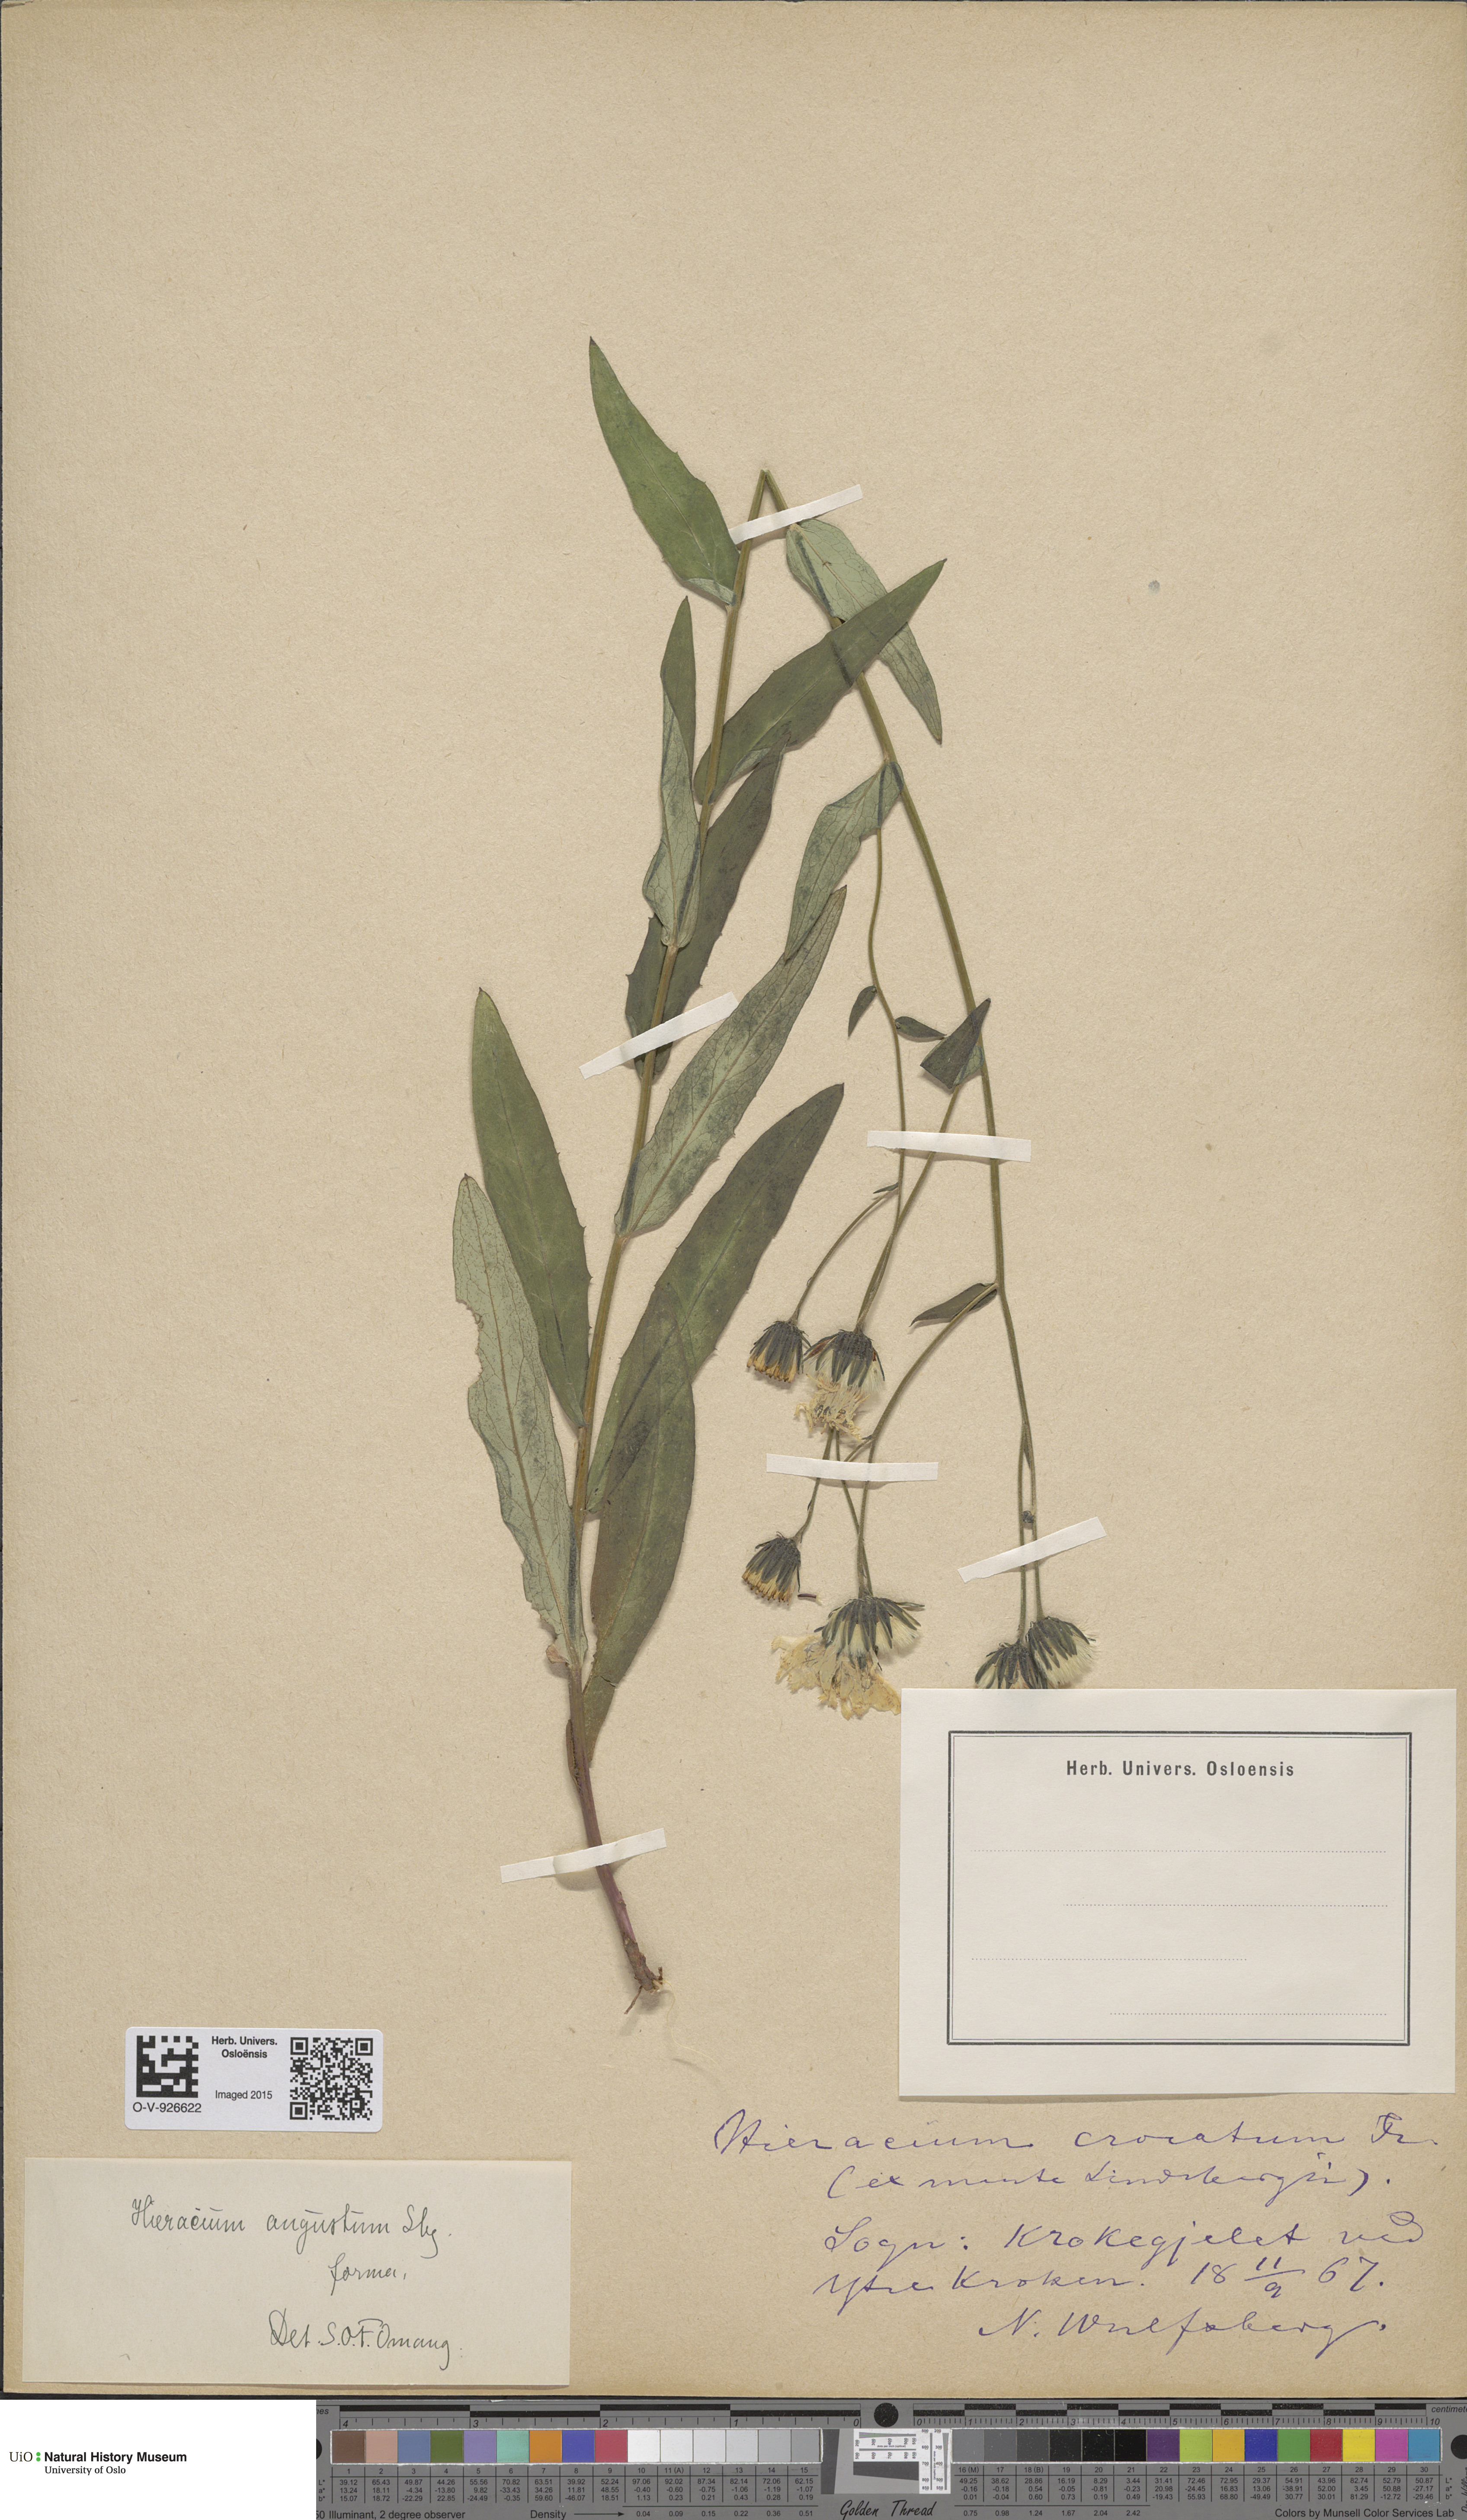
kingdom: Plantae
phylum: Tracheophyta
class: Magnoliopsida
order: Asterales
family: Asteraceae
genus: Hieracium
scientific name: Hieracium angustum
